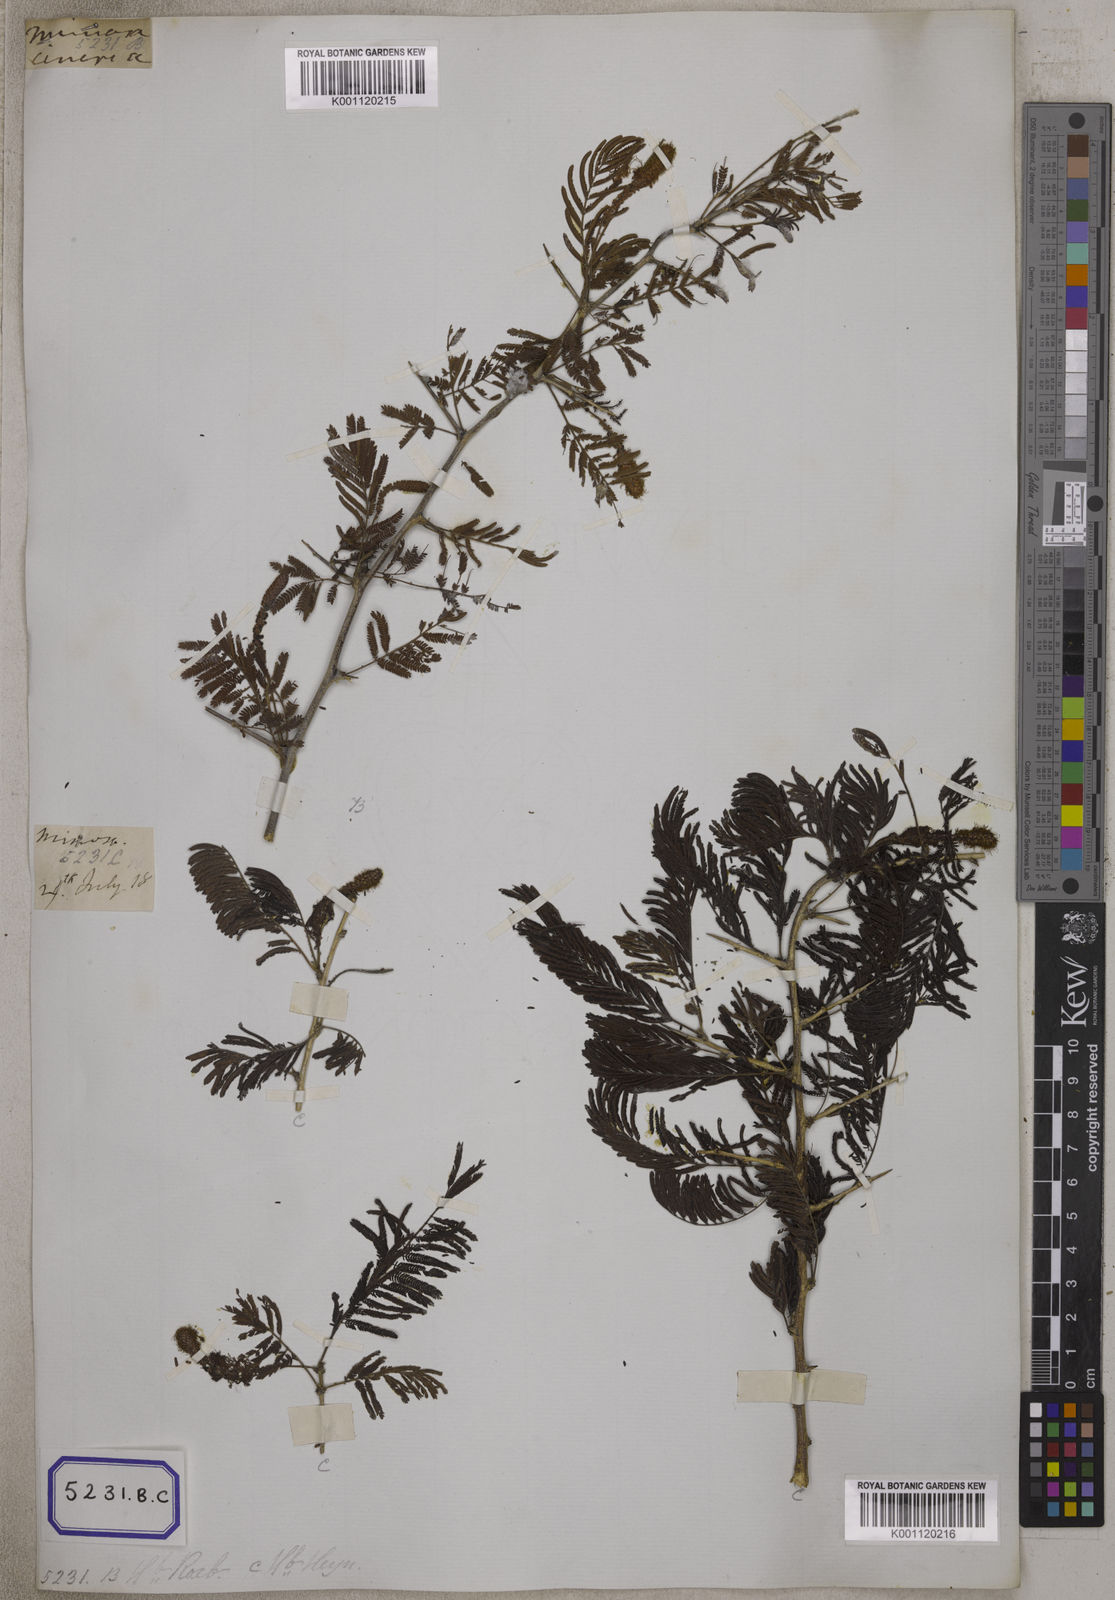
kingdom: Plantae
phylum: Tracheophyta
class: Magnoliopsida
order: Fabales
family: Fabaceae
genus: Dichrostachys
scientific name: Dichrostachys cinerea
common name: Sicklebush
